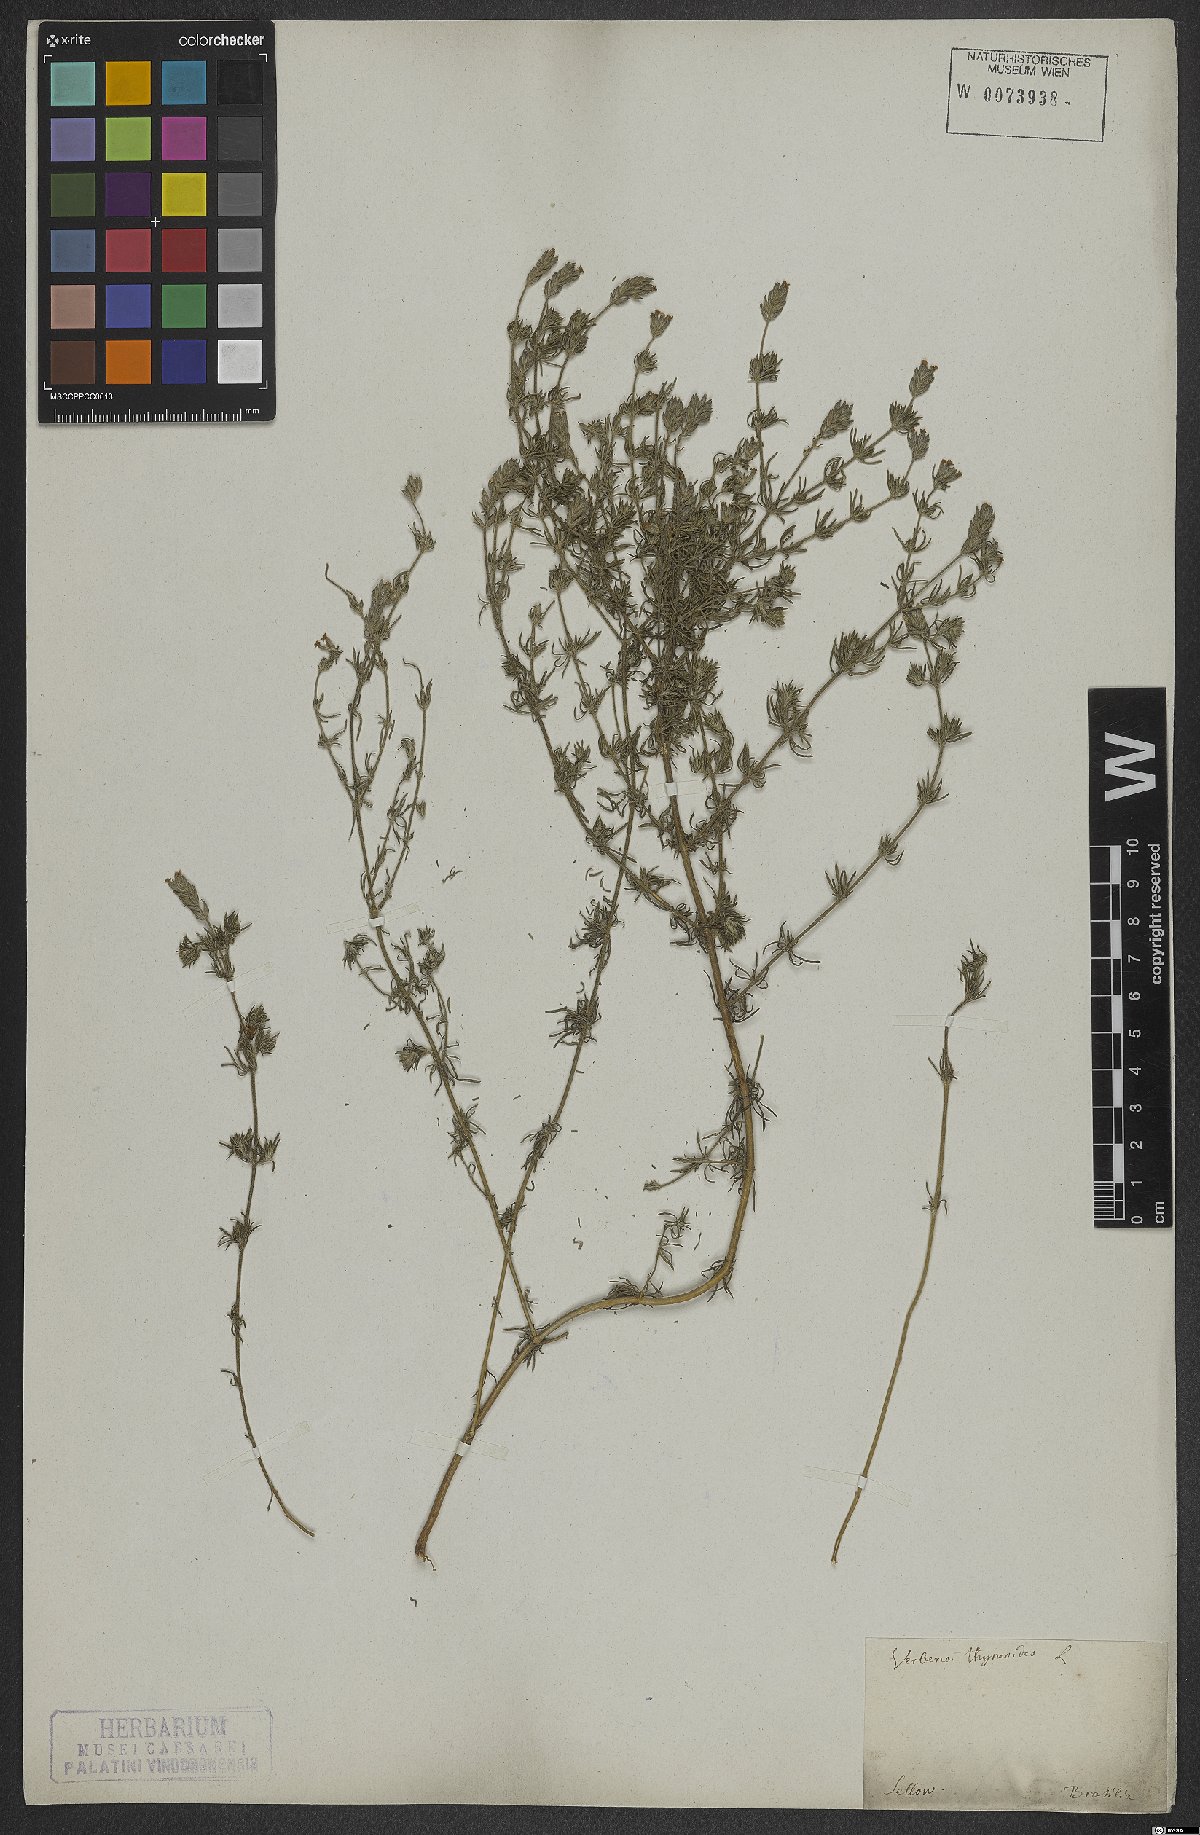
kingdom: Plantae
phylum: Tracheophyta
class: Magnoliopsida
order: Lamiales
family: Verbenaceae
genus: Verbena
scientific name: Verbena thymoides
